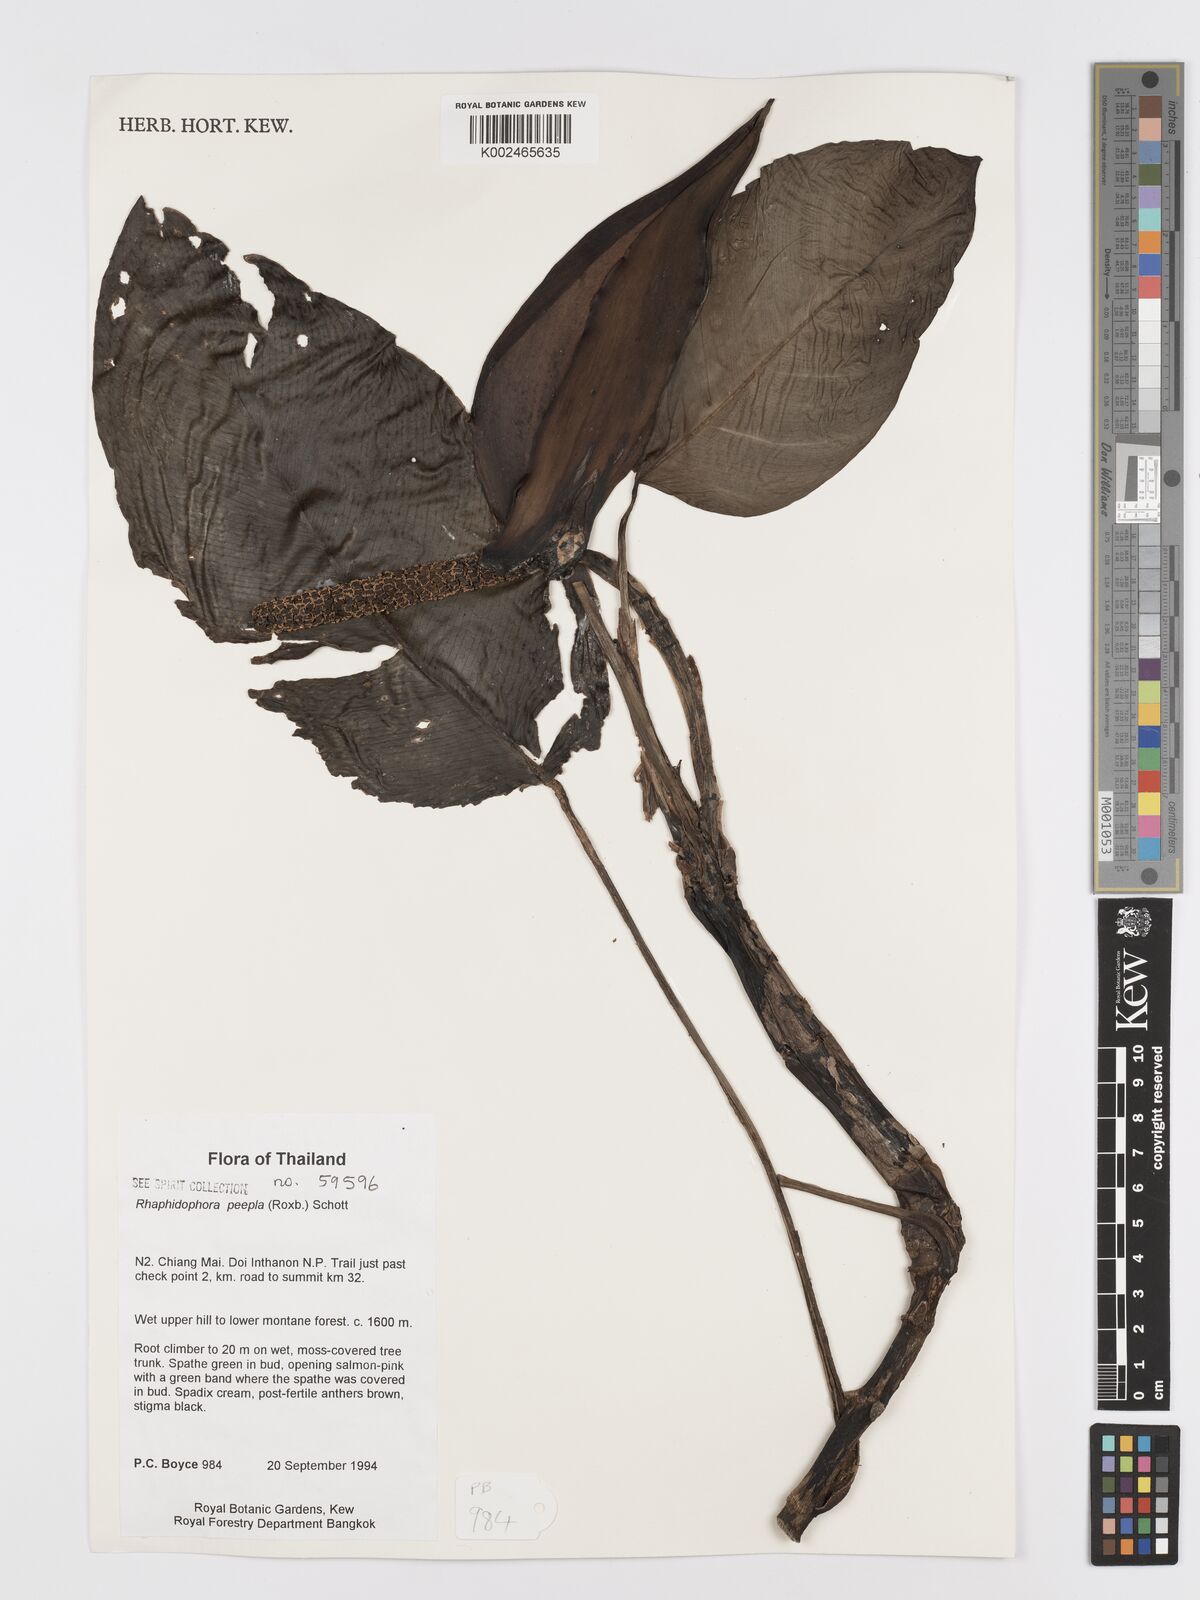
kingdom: Plantae
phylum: Tracheophyta
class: Liliopsida
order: Alismatales
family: Araceae
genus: Rhaphidophora
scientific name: Rhaphidophora peepla
